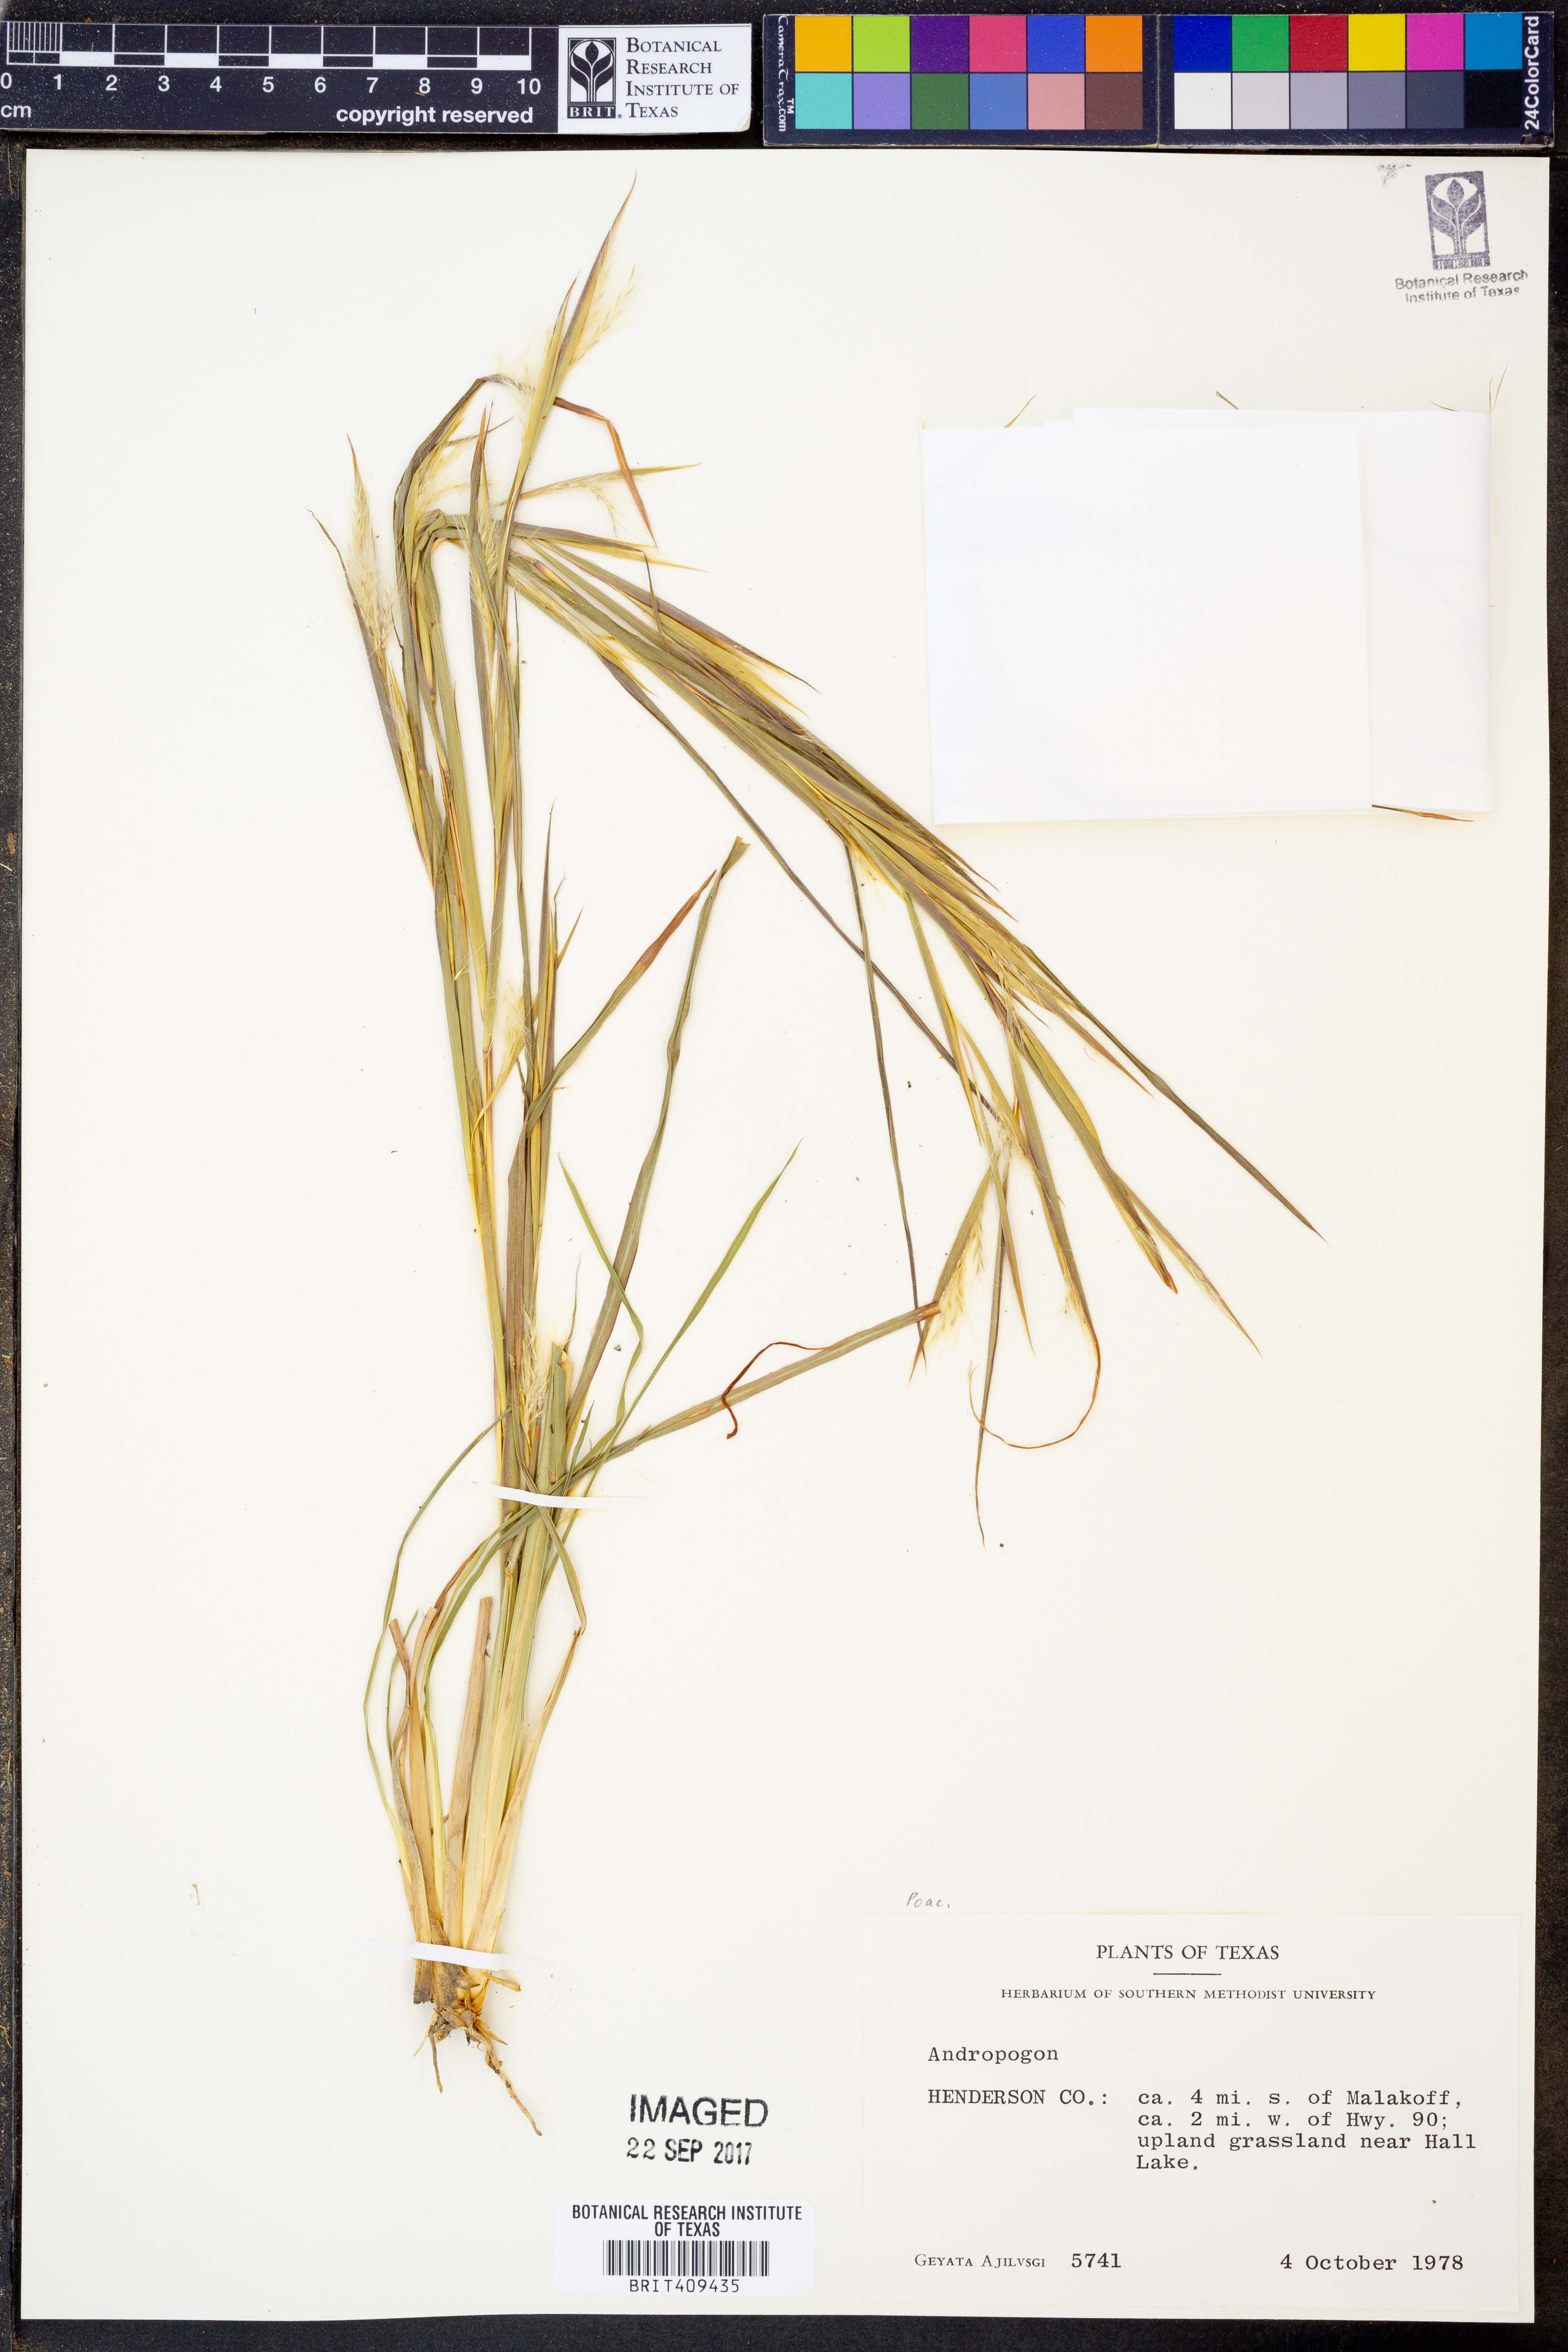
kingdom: Plantae
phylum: Tracheophyta
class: Liliopsida
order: Poales
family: Poaceae
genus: Andropogon
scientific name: Andropogon
